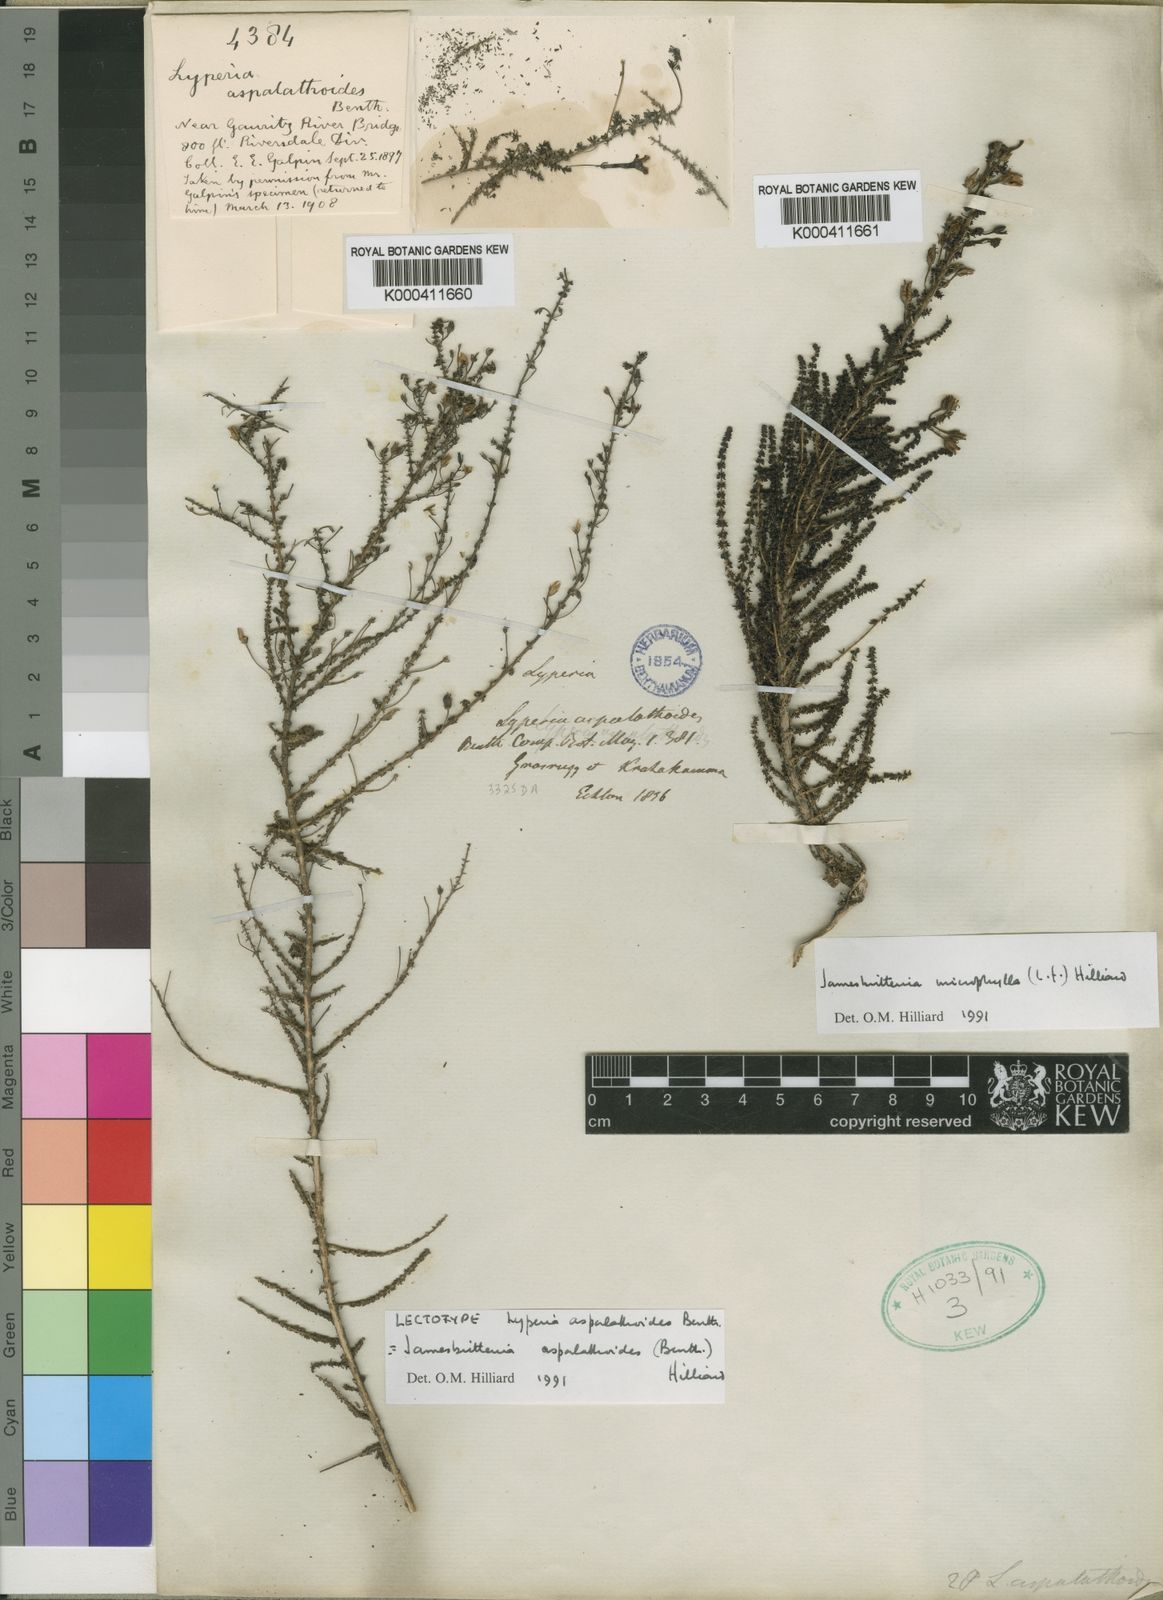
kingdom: Plantae
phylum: Tracheophyta
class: Magnoliopsida
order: Lamiales
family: Scrophulariaceae
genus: Jamesbrittenia
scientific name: Jamesbrittenia aspalathoides
